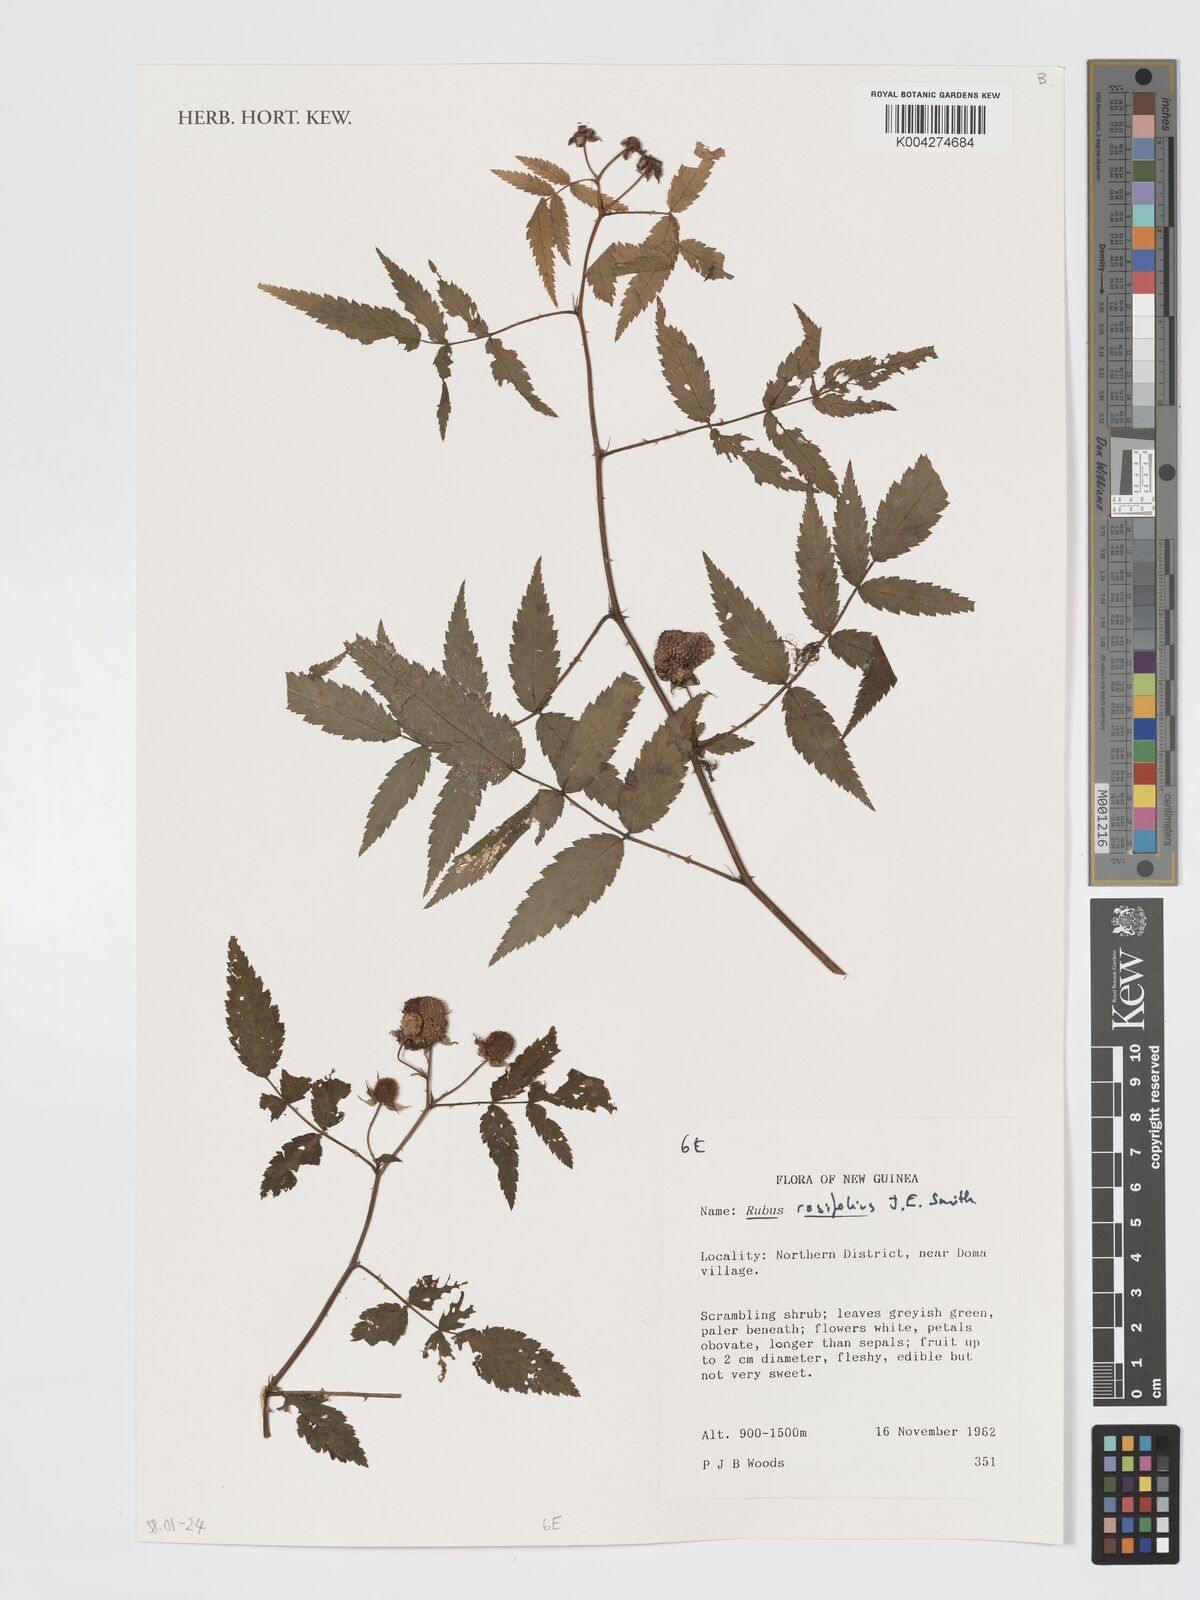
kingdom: Plantae
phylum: Tracheophyta
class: Magnoliopsida
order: Rosales
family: Rosaceae
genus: Rubus
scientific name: Rubus
